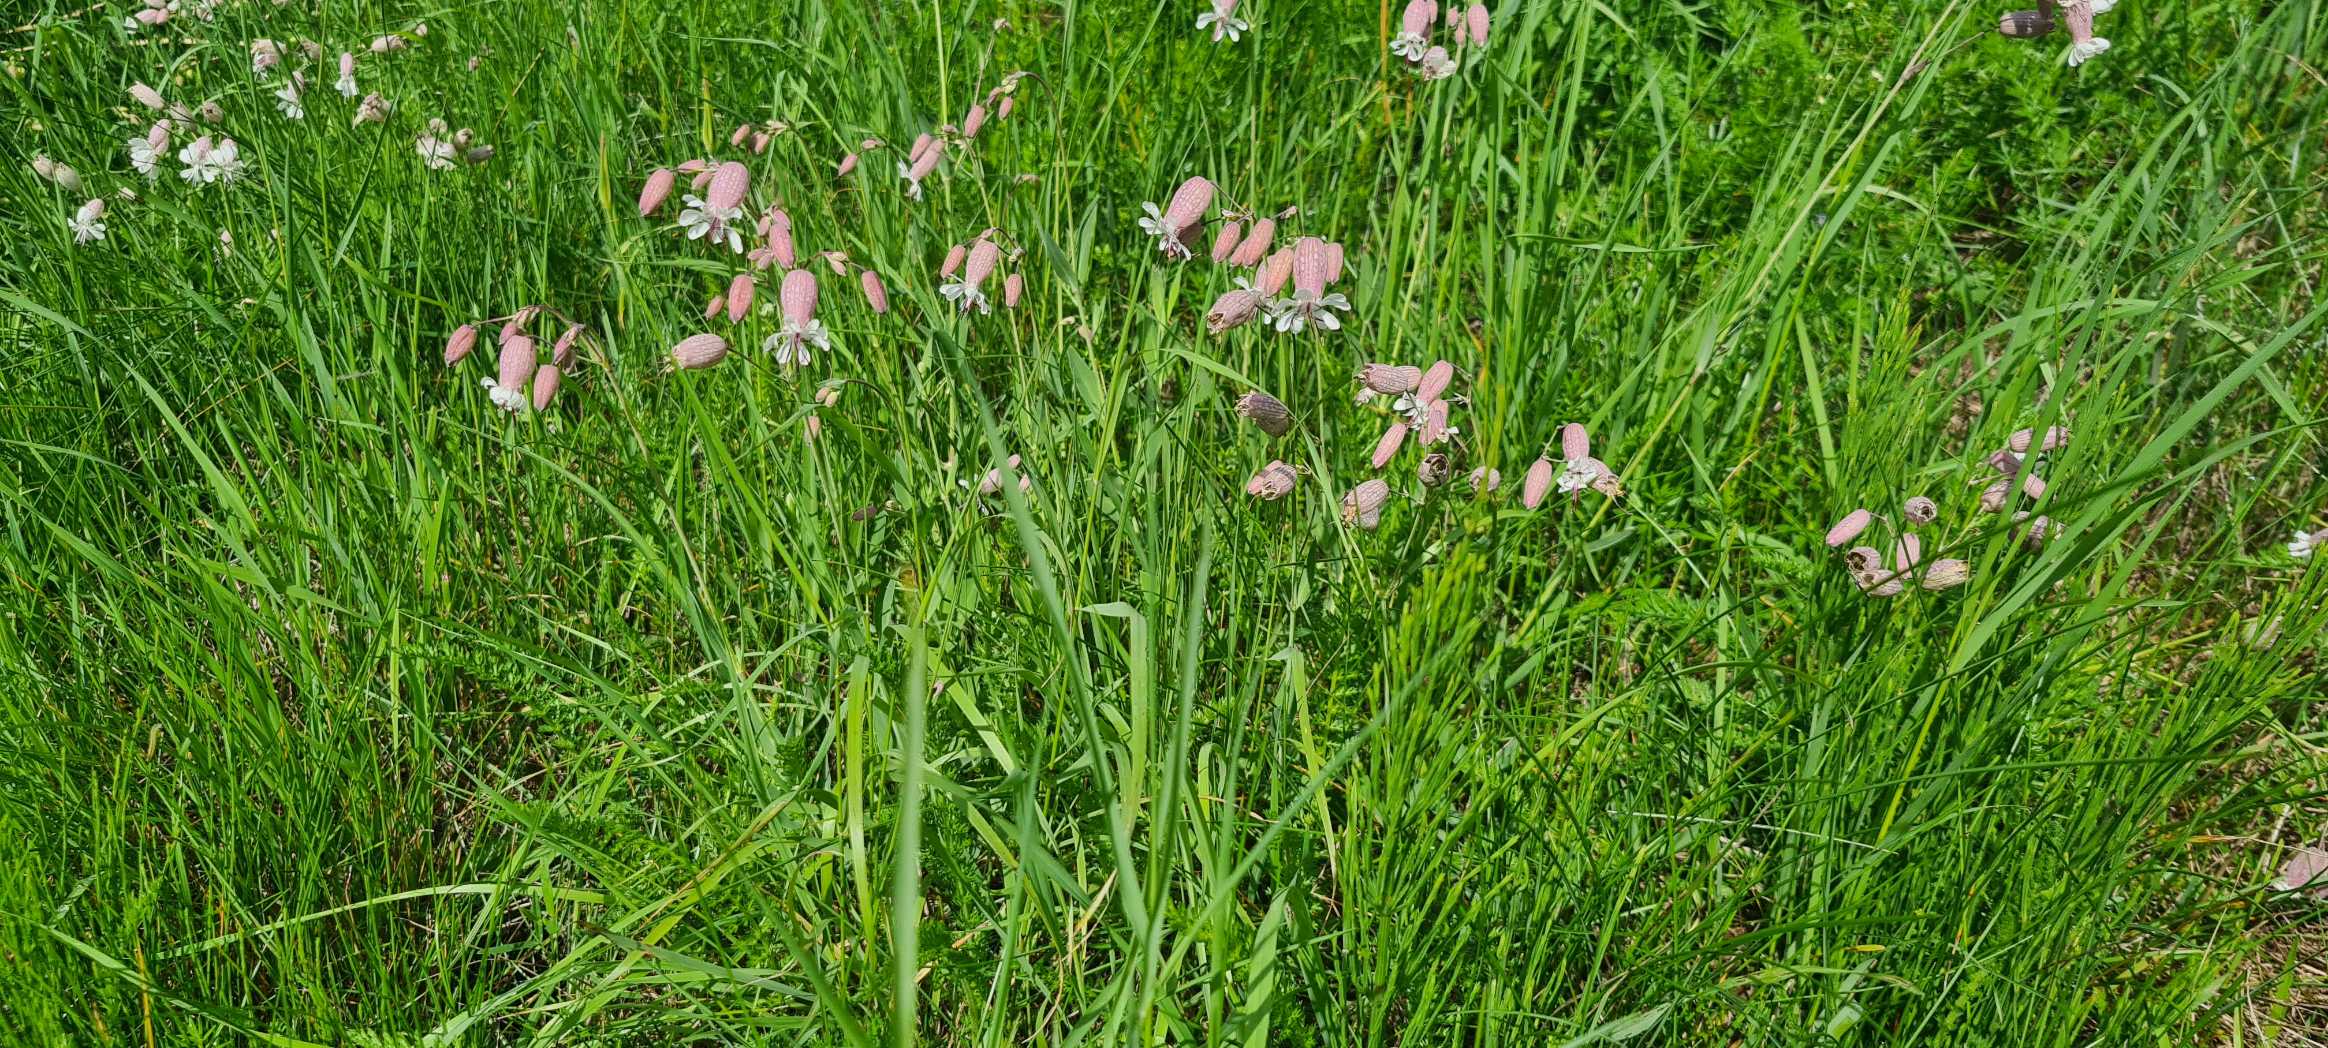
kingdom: Plantae
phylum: Tracheophyta
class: Magnoliopsida
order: Caryophyllales
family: Caryophyllaceae
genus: Silene
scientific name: Silene vulgaris
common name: Blæresmælde
